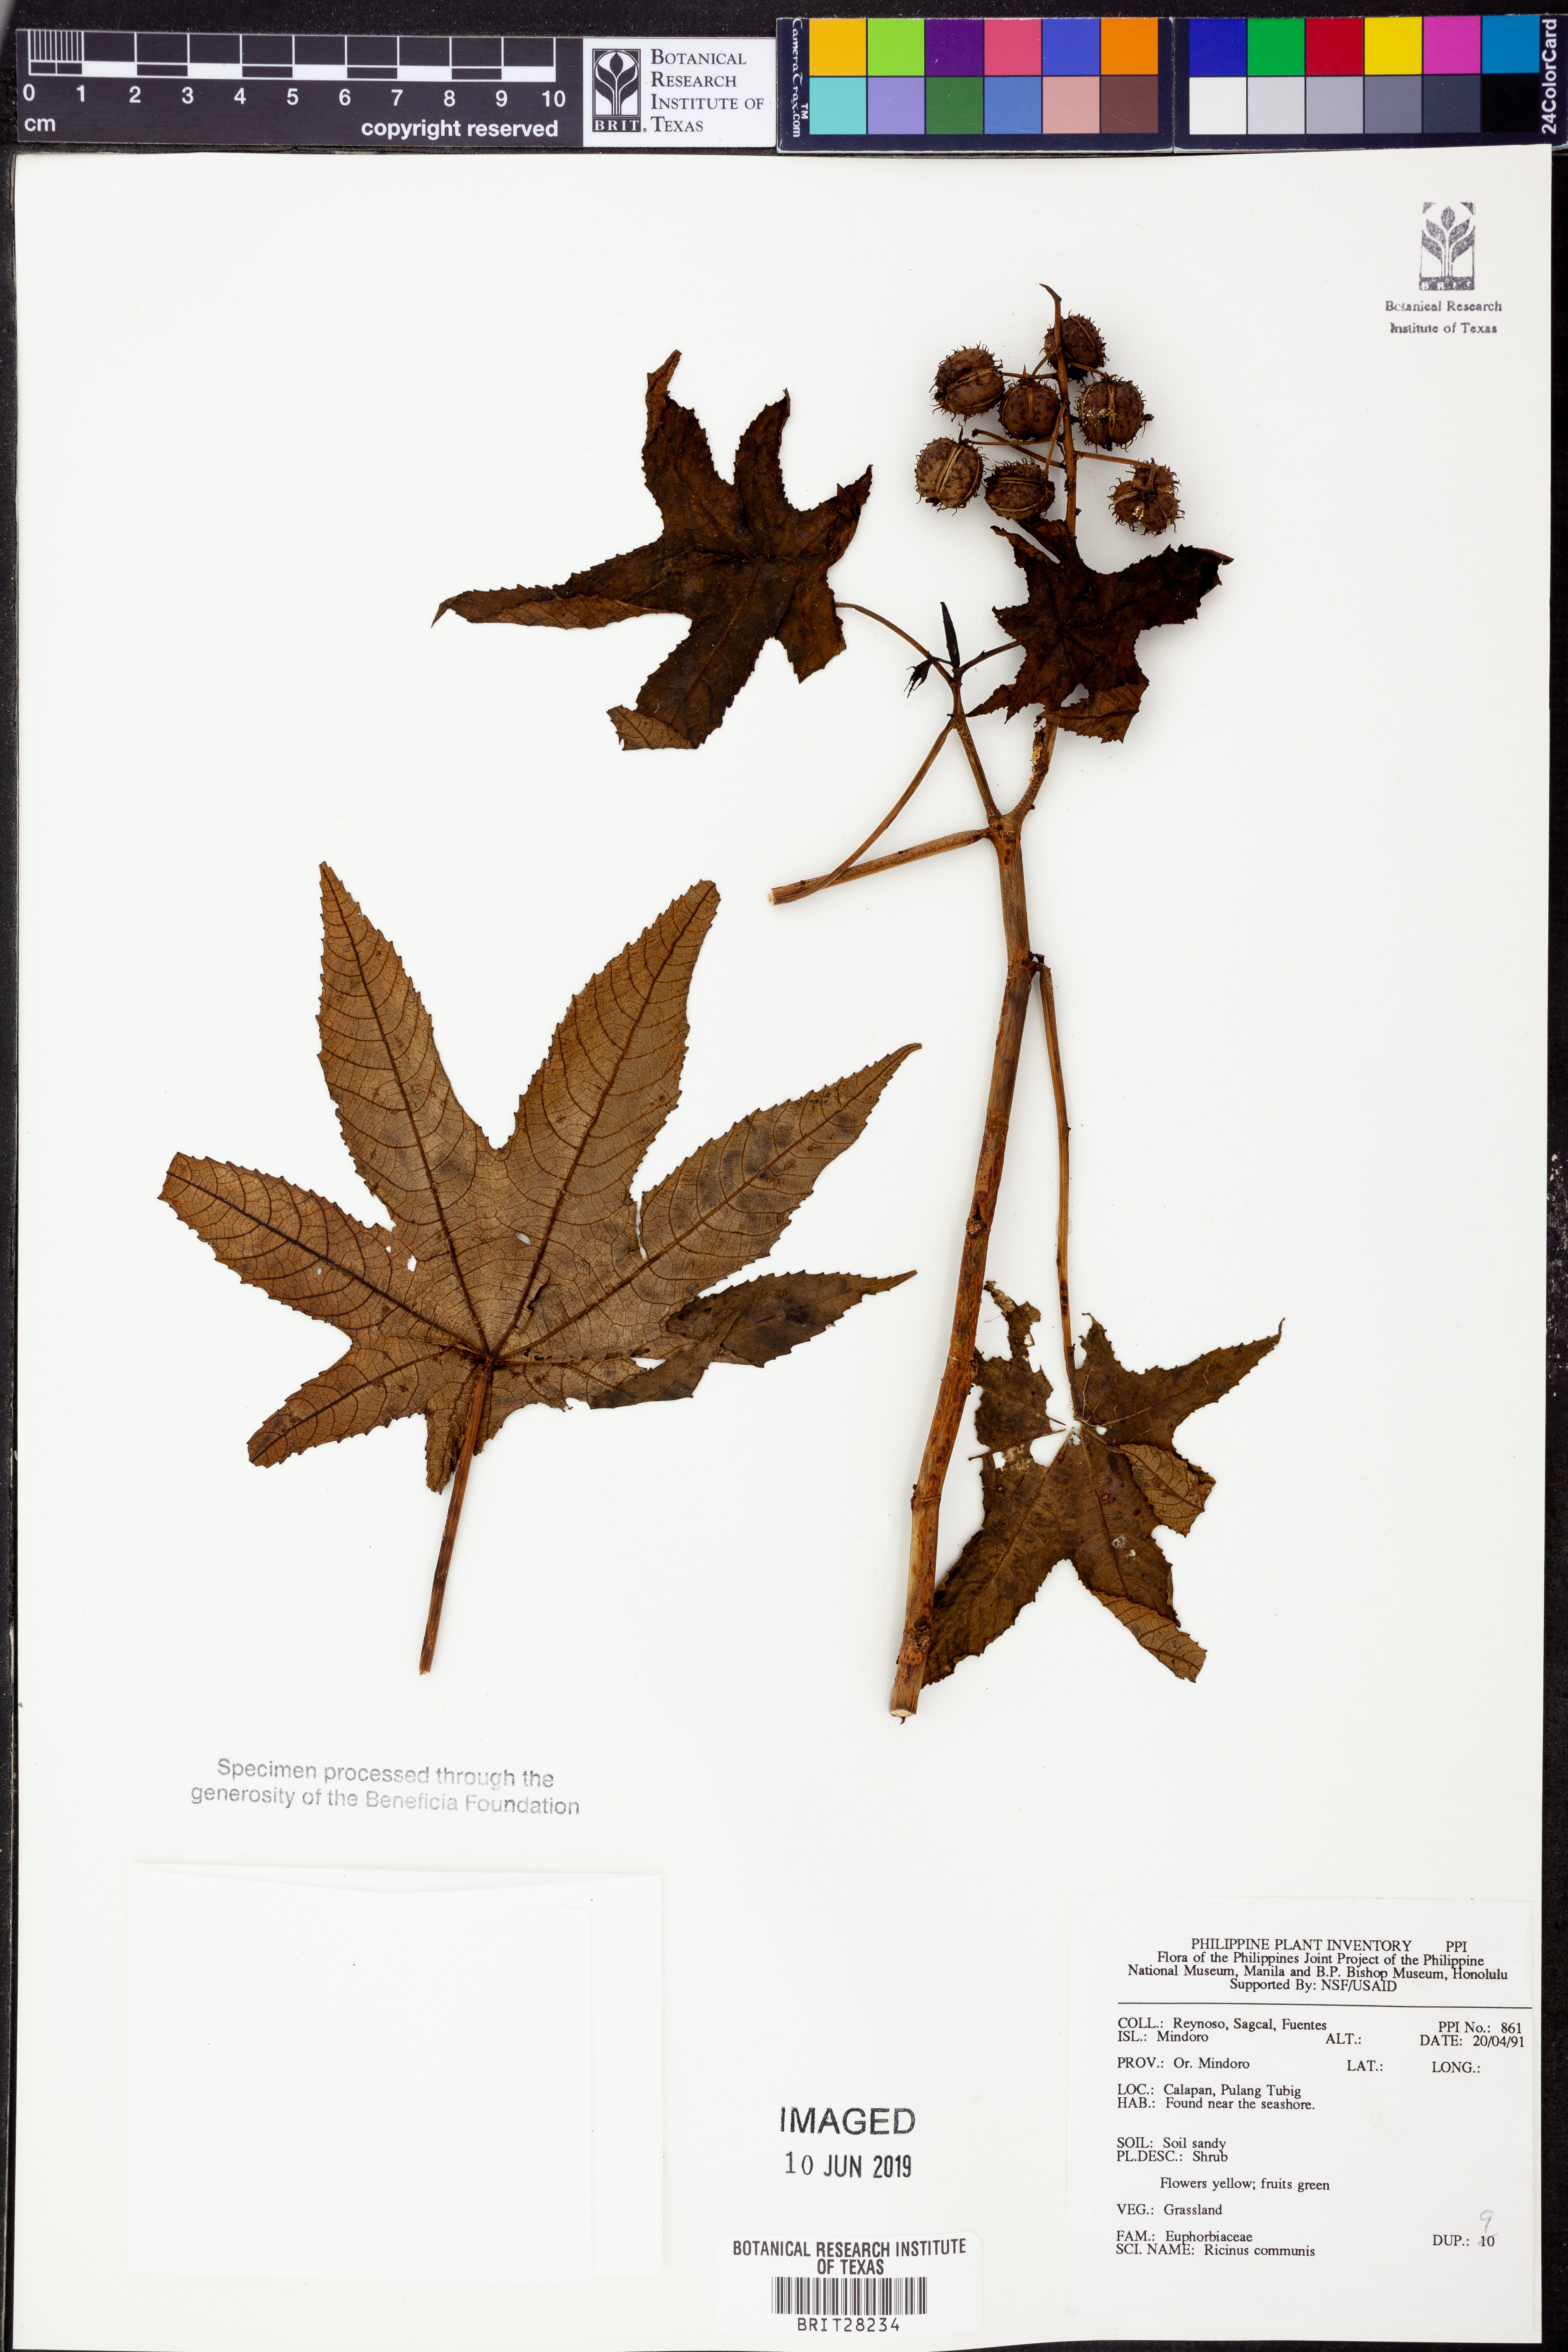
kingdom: Plantae
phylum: Tracheophyta
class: Magnoliopsida
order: Malpighiales
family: Euphorbiaceae
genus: Ricinus
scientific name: Ricinus communis
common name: Castor-oil-plant
